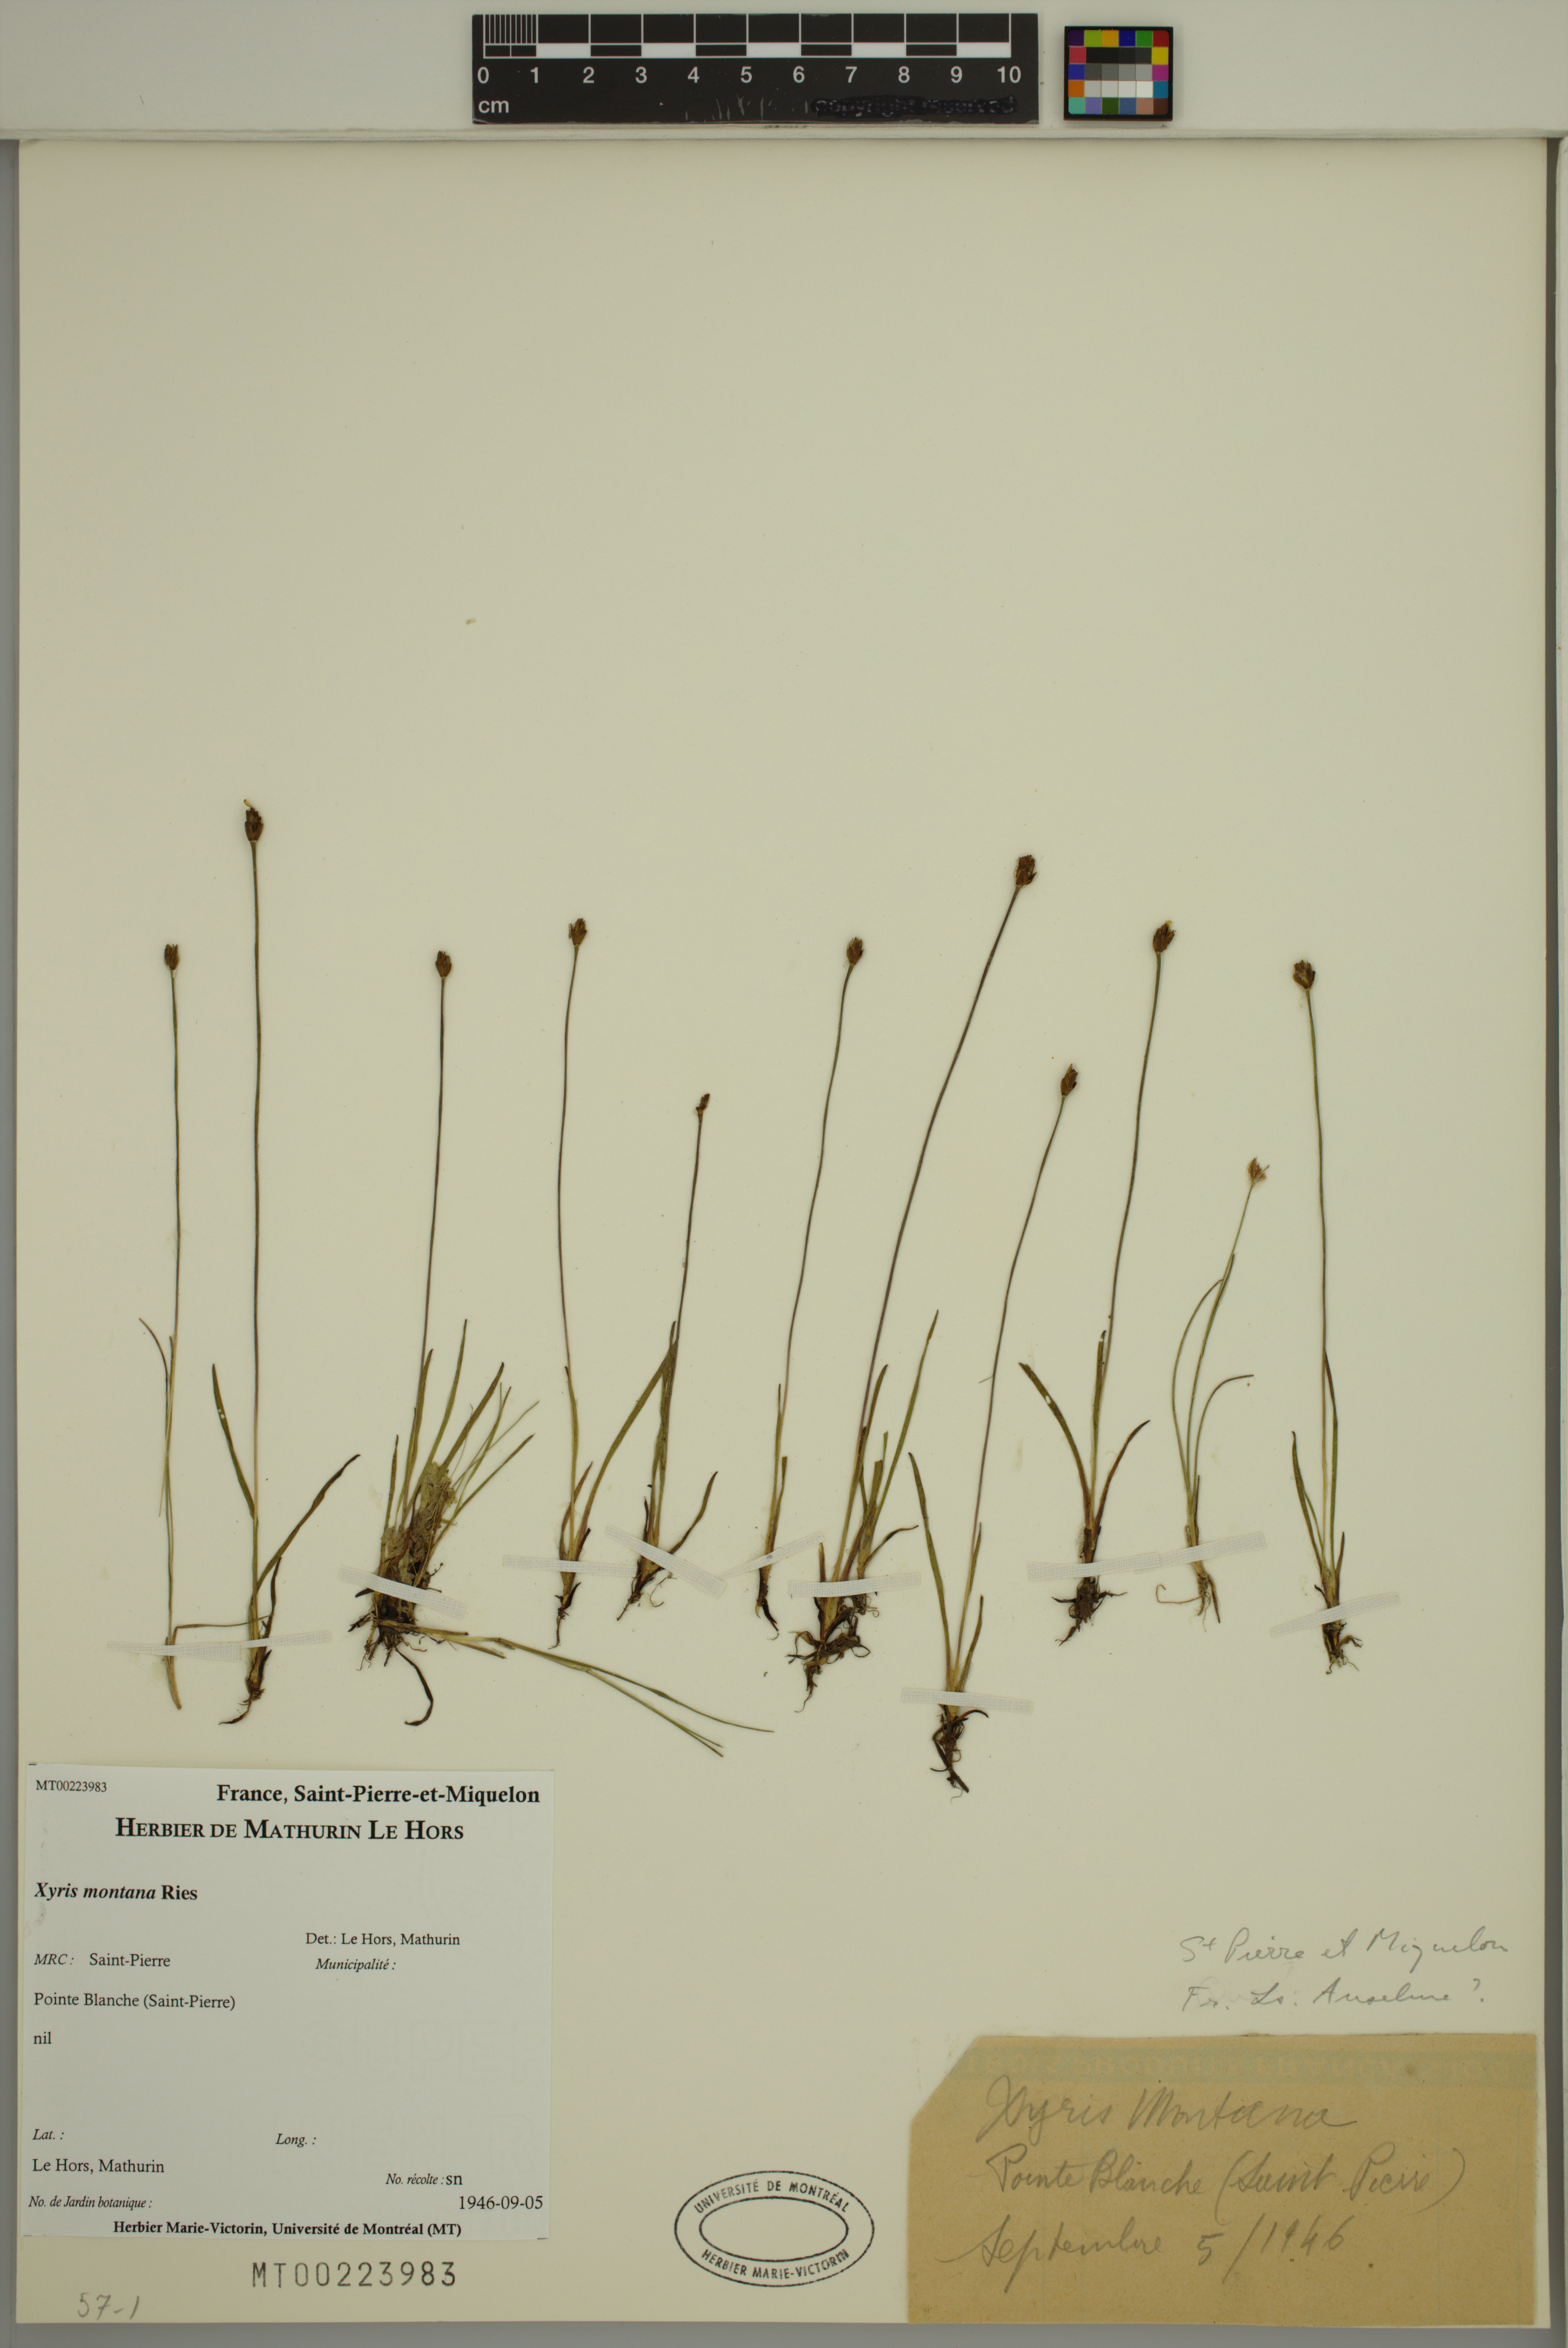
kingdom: Plantae
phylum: Tracheophyta
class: Liliopsida
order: Poales
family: Xyridaceae
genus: Xyris
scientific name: Xyris montana
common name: Northern yellow-eyed-grass
